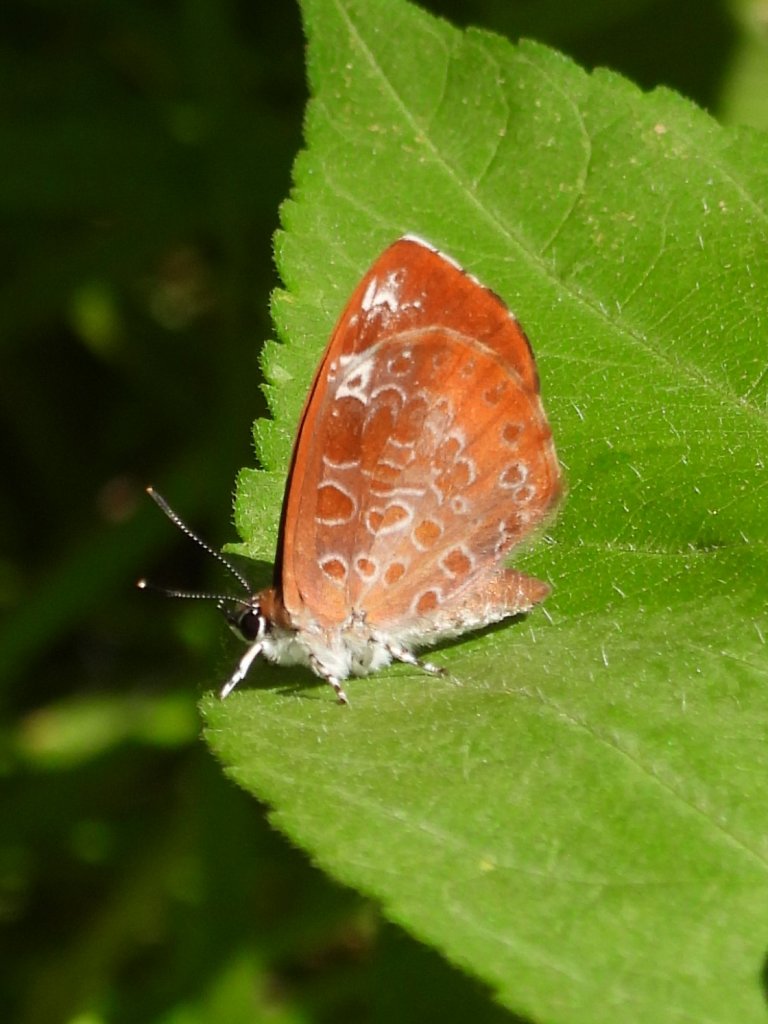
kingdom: Animalia
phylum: Arthropoda
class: Insecta
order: Lepidoptera
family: Lycaenidae
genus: Feniseca
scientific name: Feniseca tarquinius
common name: Harvester
